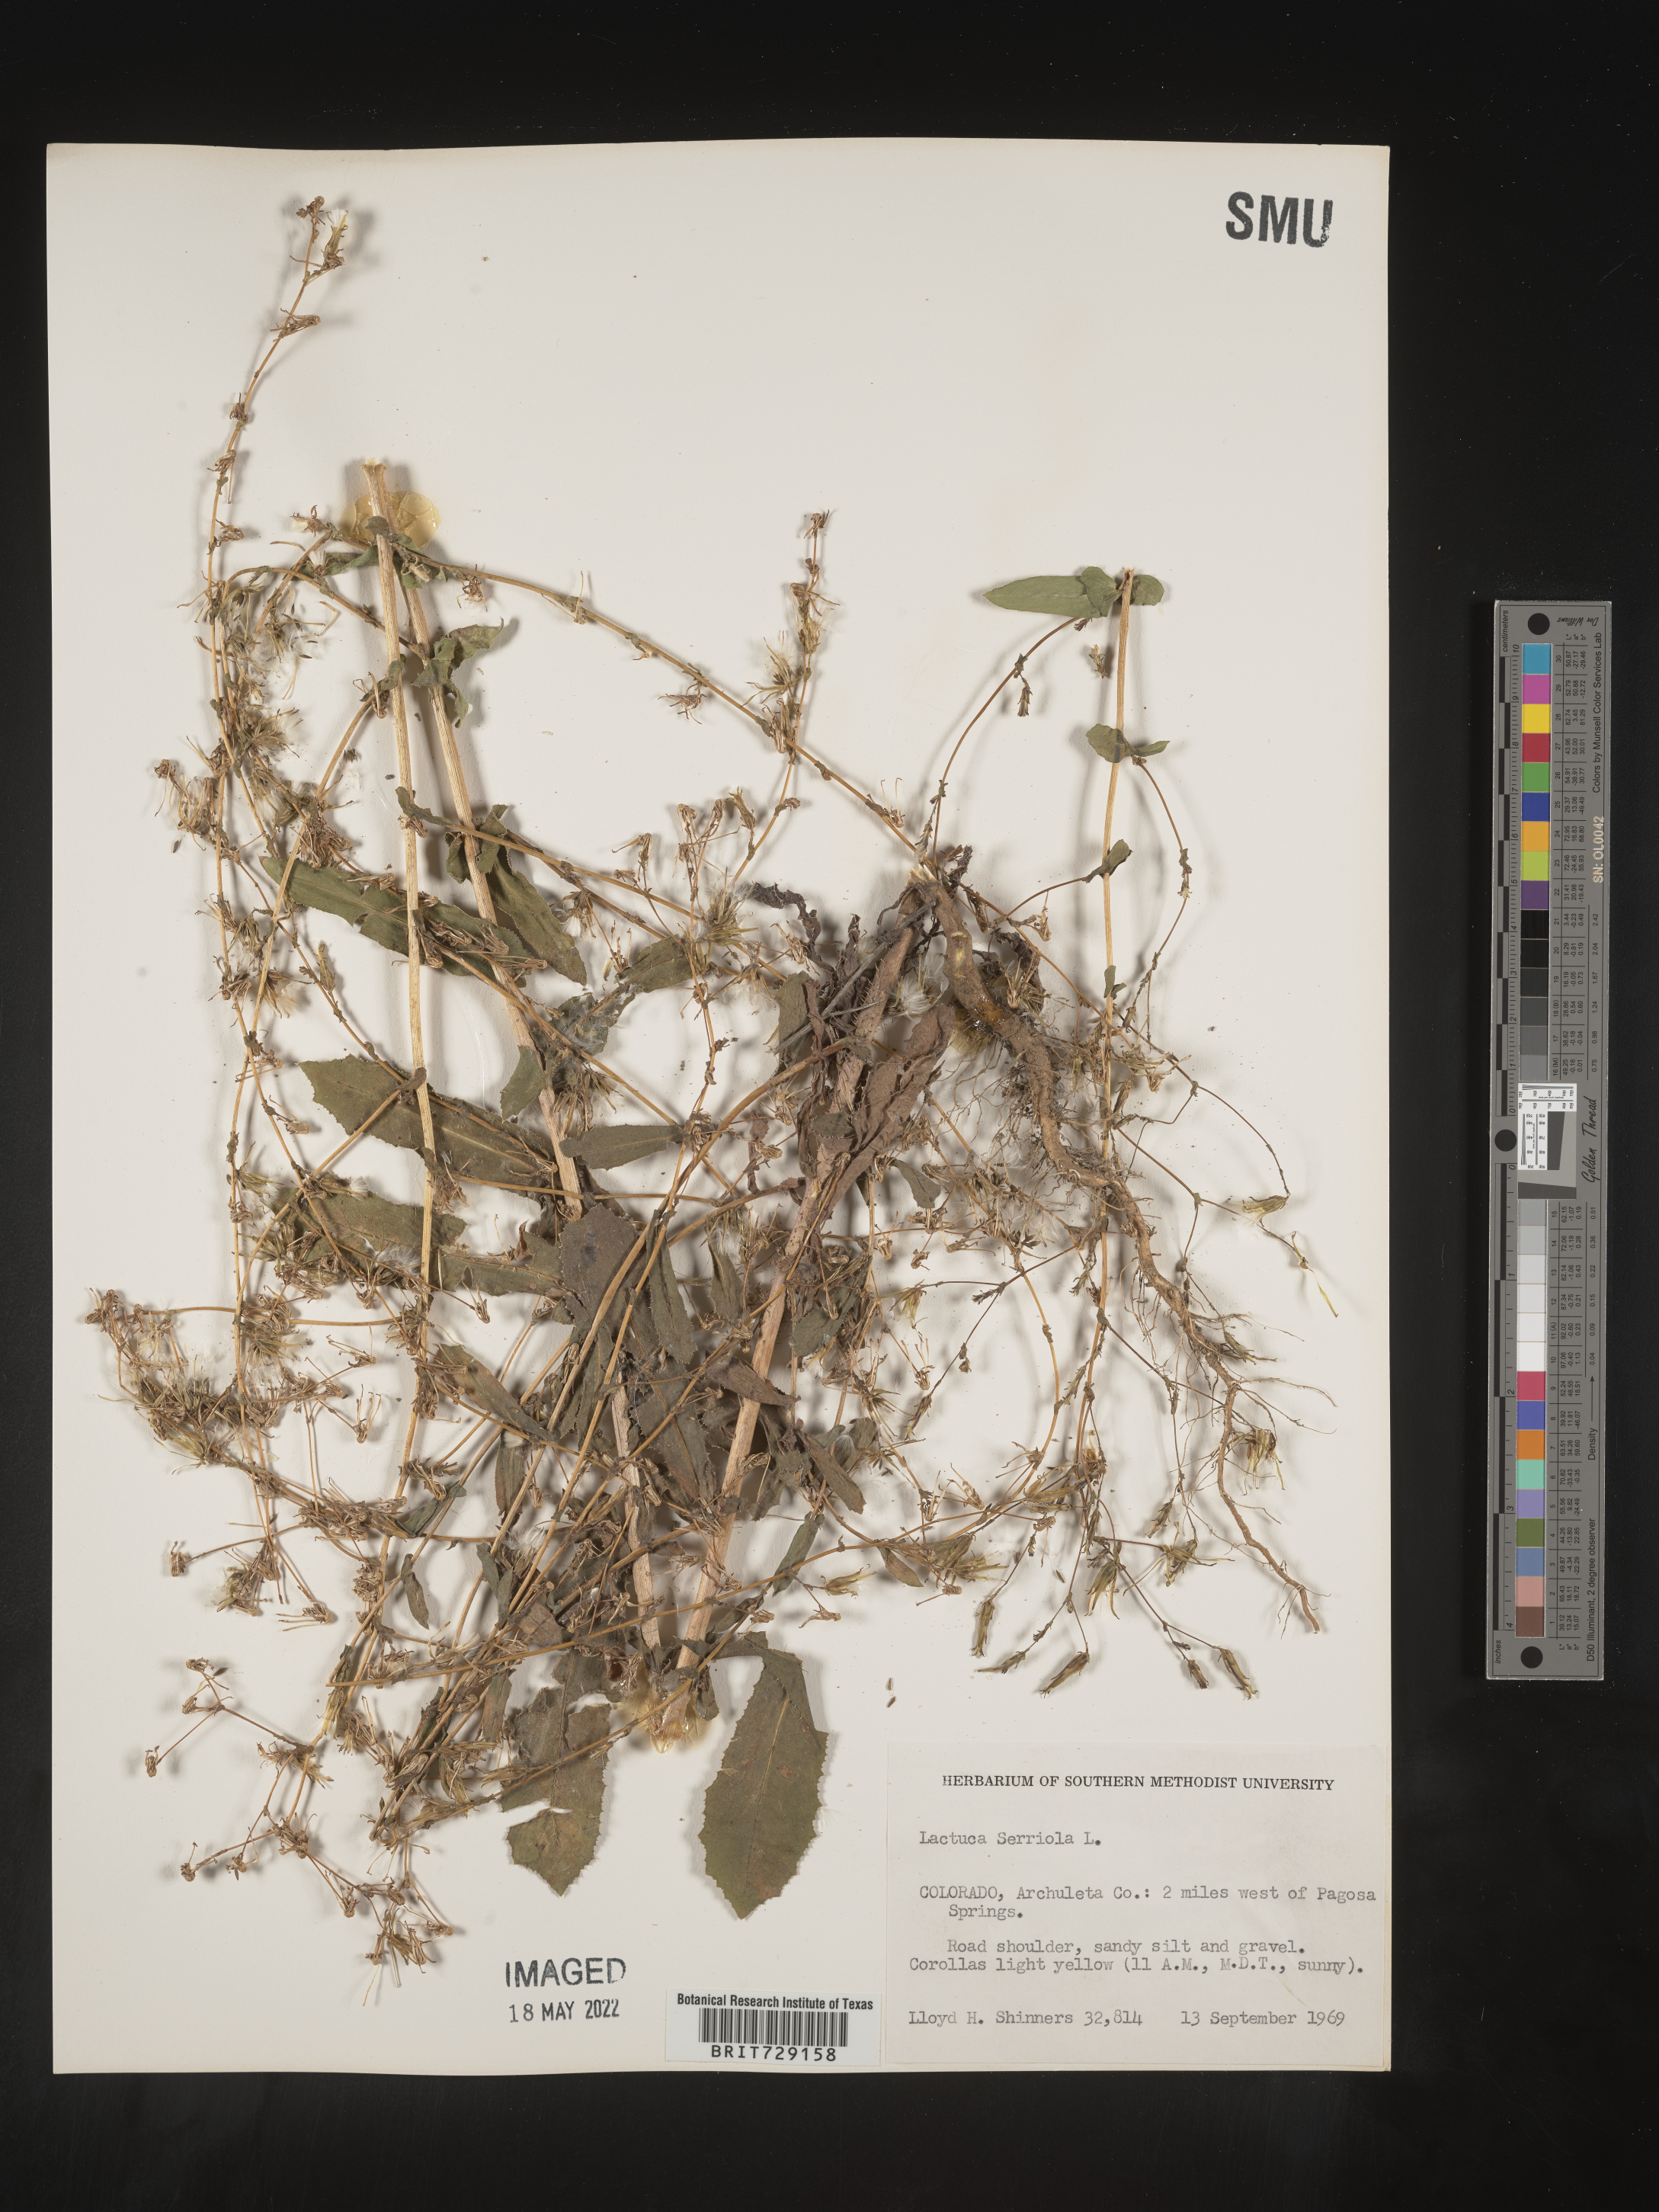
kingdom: Plantae
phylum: Tracheophyta
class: Magnoliopsida
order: Asterales
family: Asteraceae
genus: Lactuca
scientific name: Lactuca serriola
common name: Prickly lettuce
